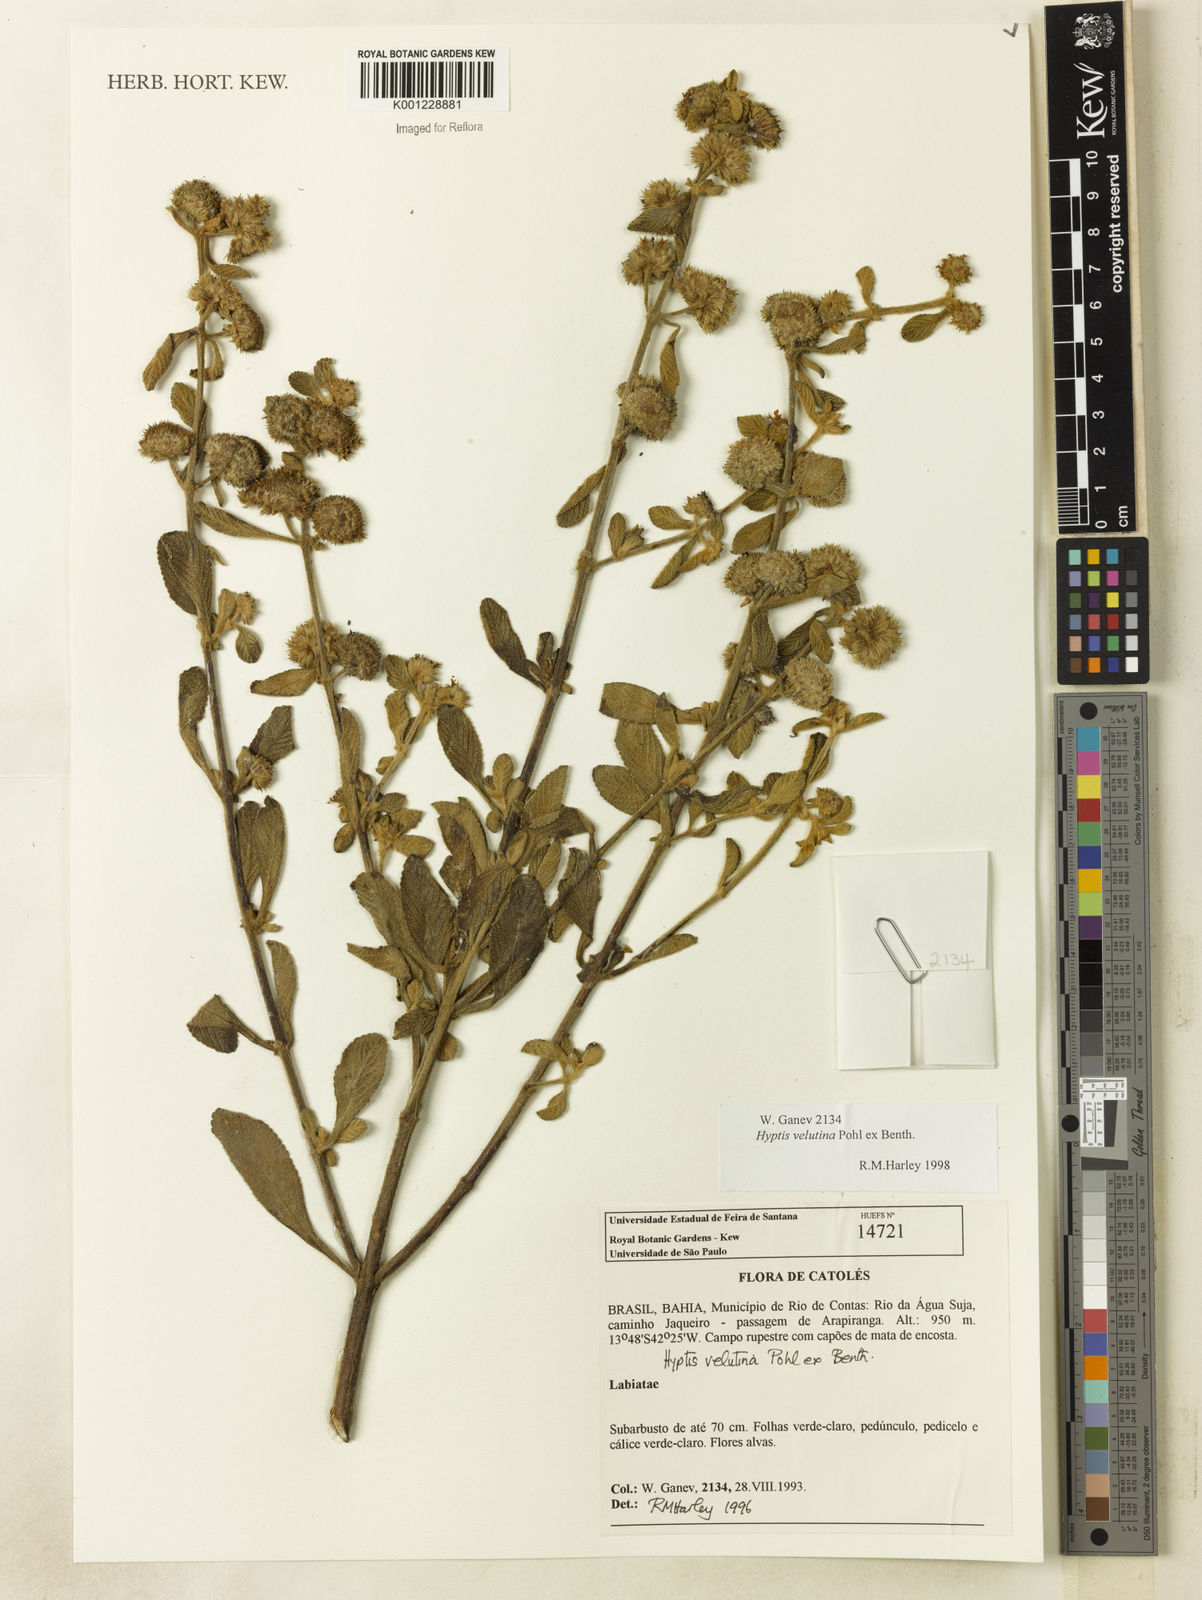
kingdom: Plantae
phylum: Tracheophyta
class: Magnoliopsida
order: Lamiales
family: Lamiaceae
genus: Hyptis
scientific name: Hyptis velutina
